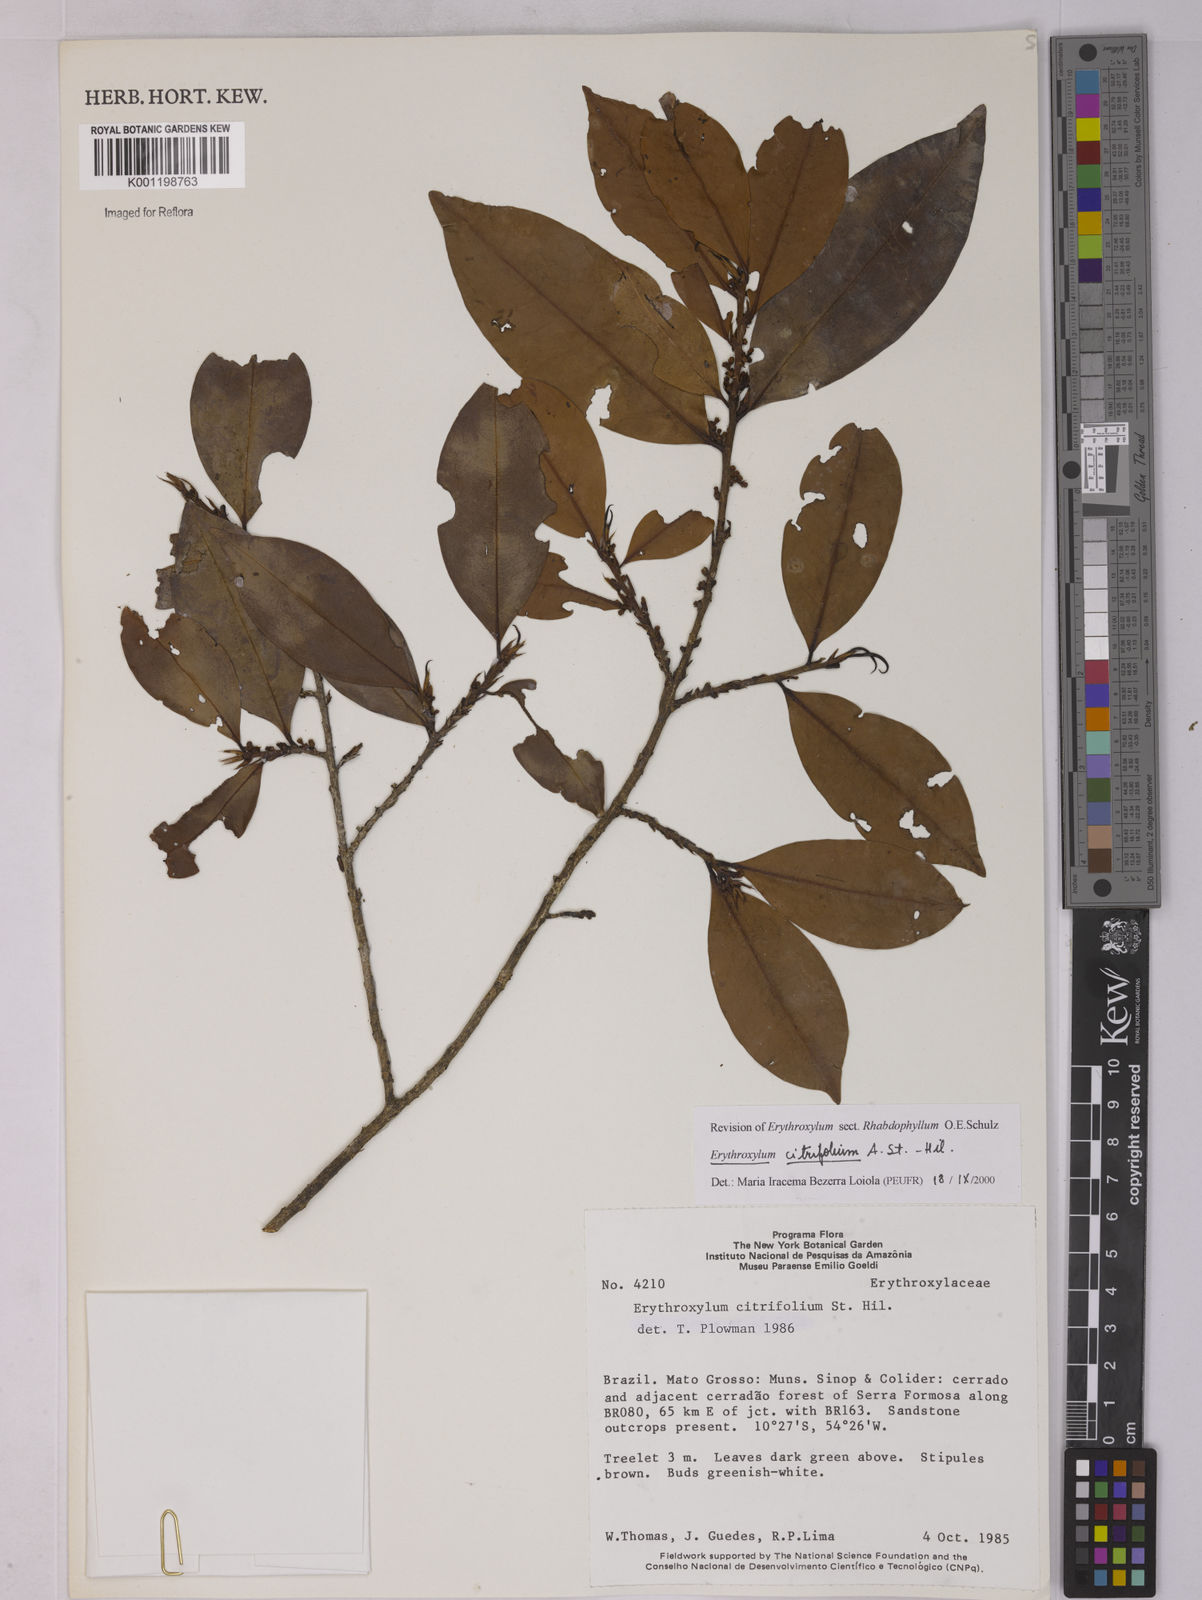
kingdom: Plantae
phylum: Tracheophyta
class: Magnoliopsida
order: Malpighiales
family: Erythroxylaceae
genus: Erythroxylum
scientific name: Erythroxylum citrifolium
